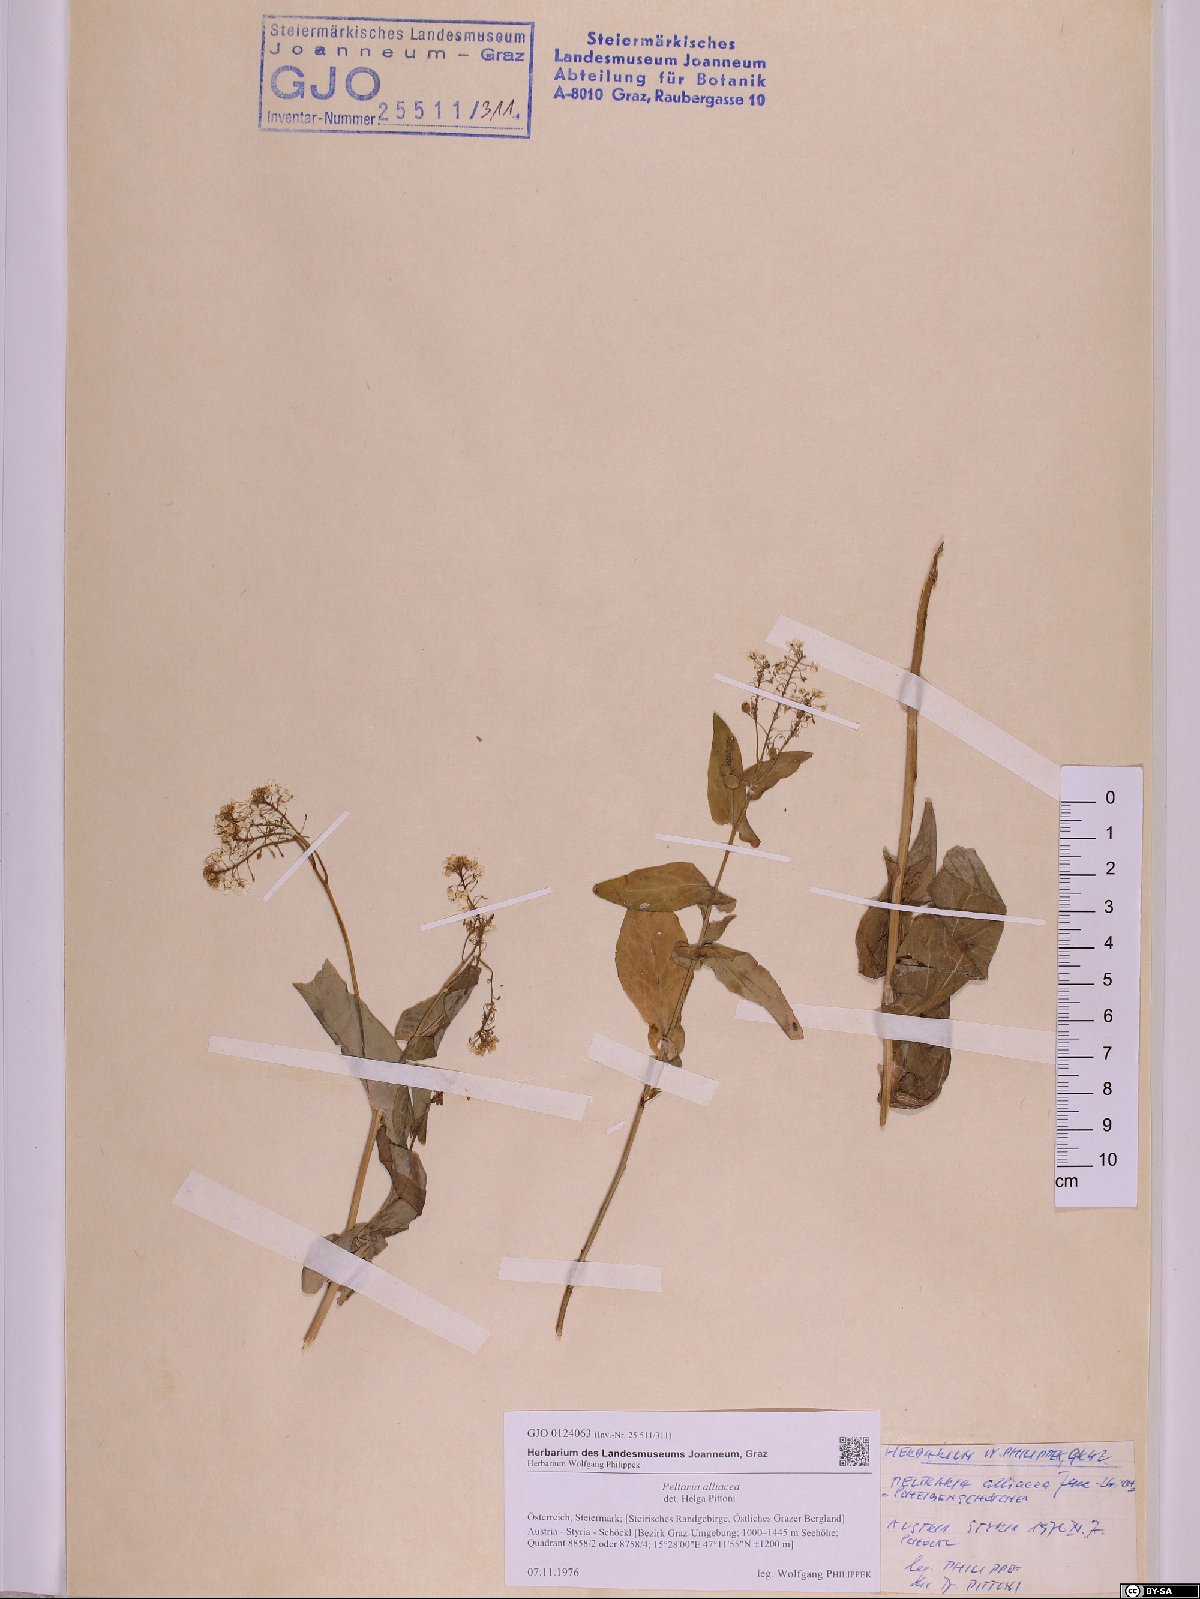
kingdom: Plantae
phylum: Tracheophyta
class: Magnoliopsida
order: Brassicales
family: Brassicaceae
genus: Peltaria
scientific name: Peltaria alliacea
